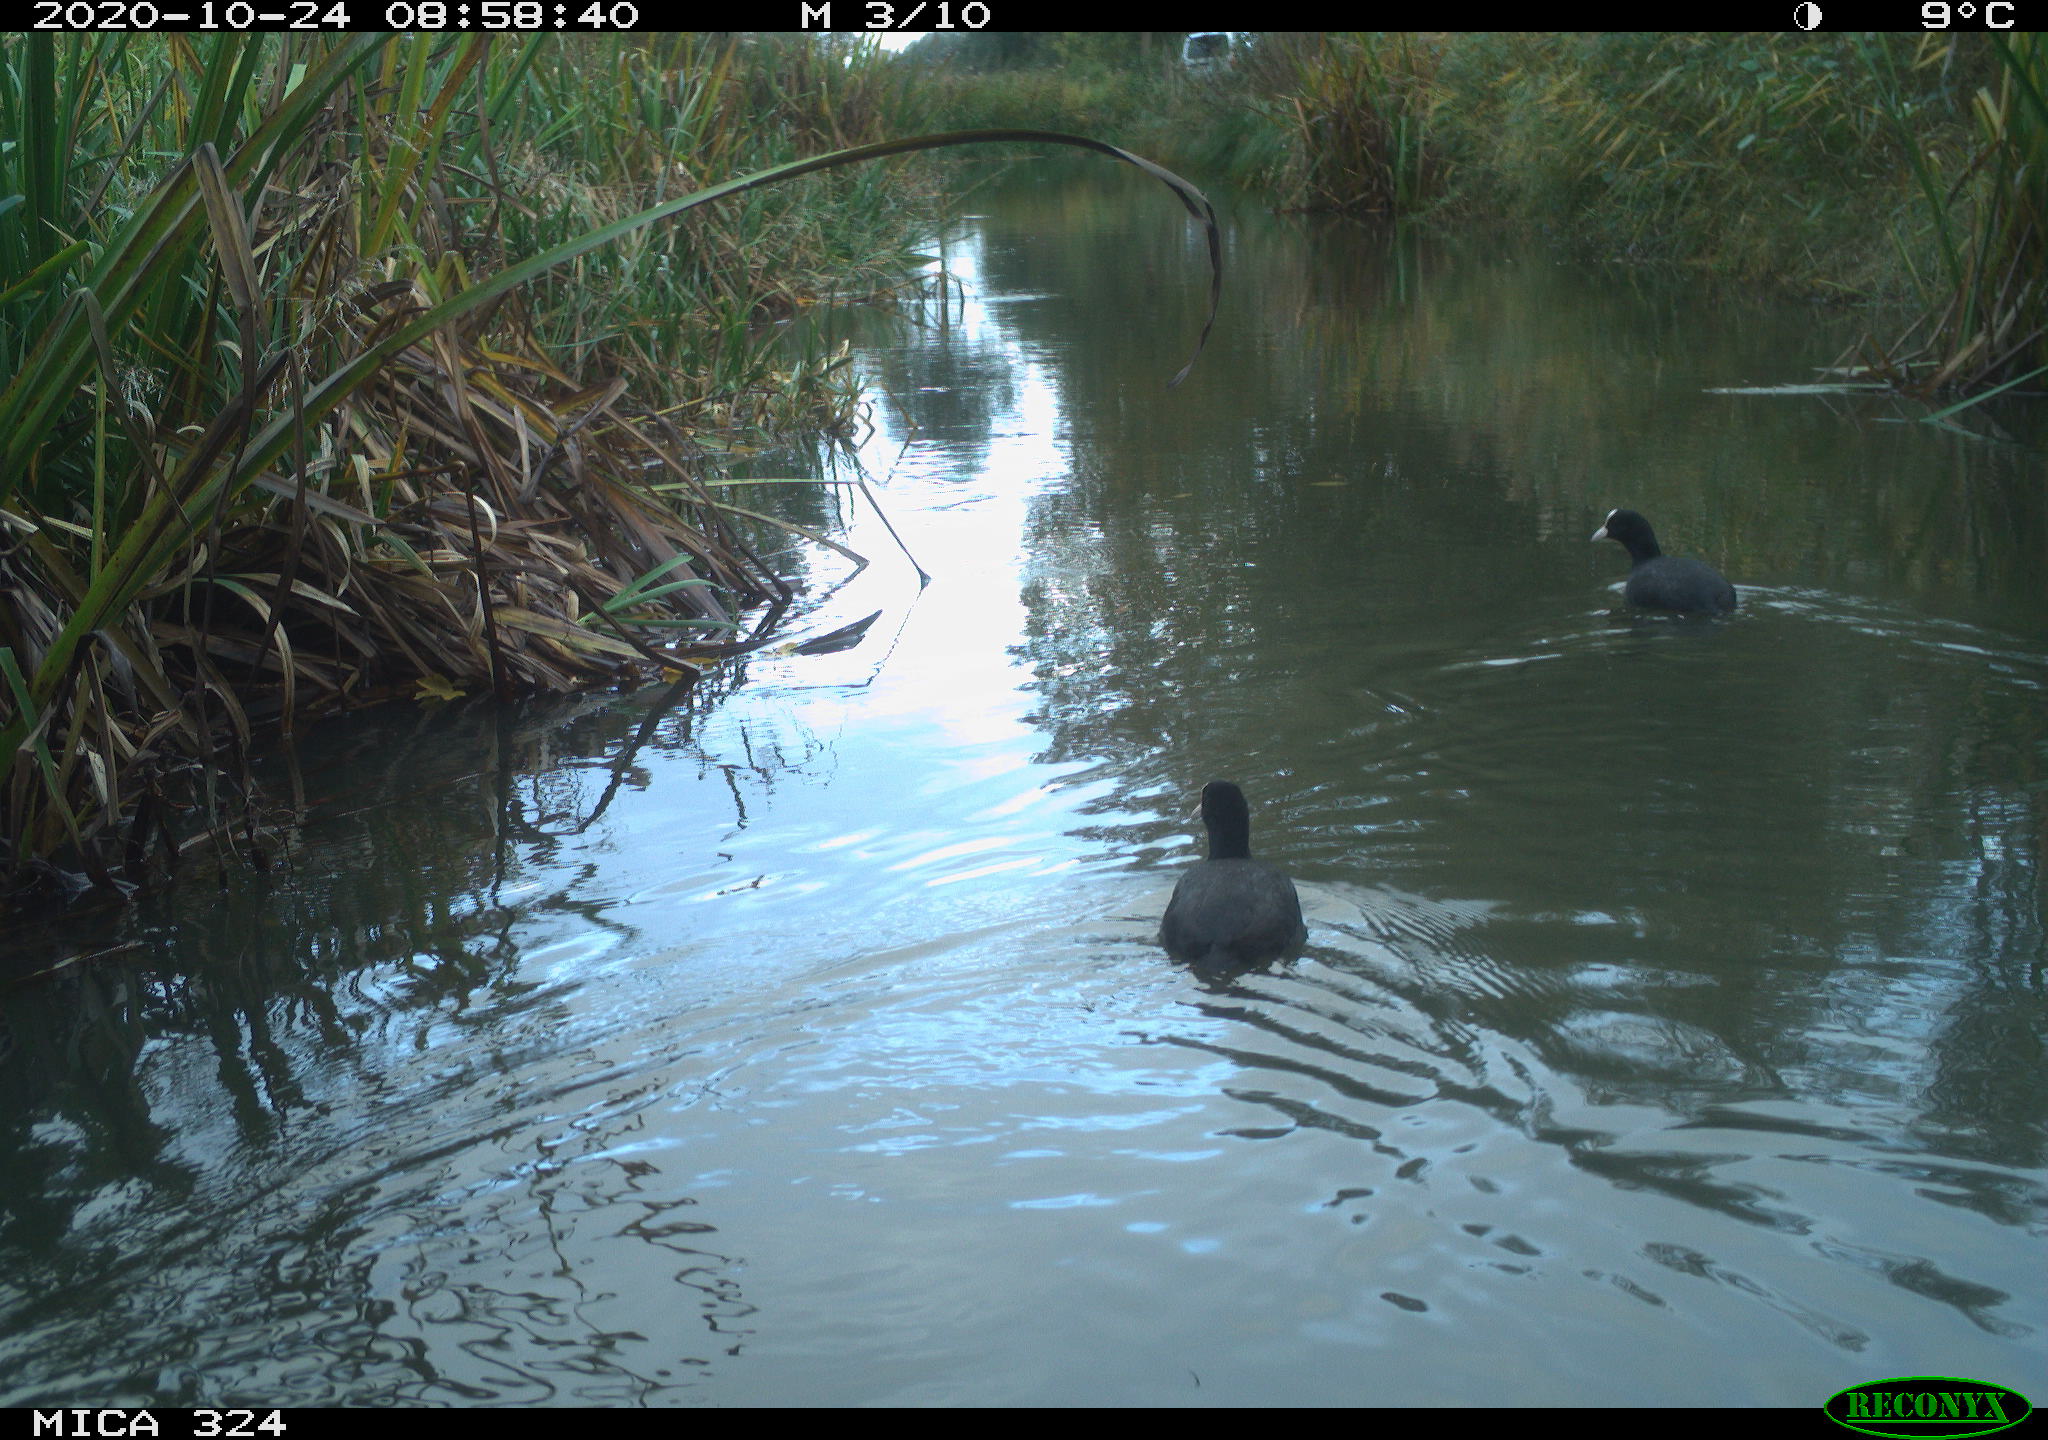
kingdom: Animalia
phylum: Chordata
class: Aves
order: Gruiformes
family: Rallidae
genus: Fulica
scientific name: Fulica atra
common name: Eurasian coot
